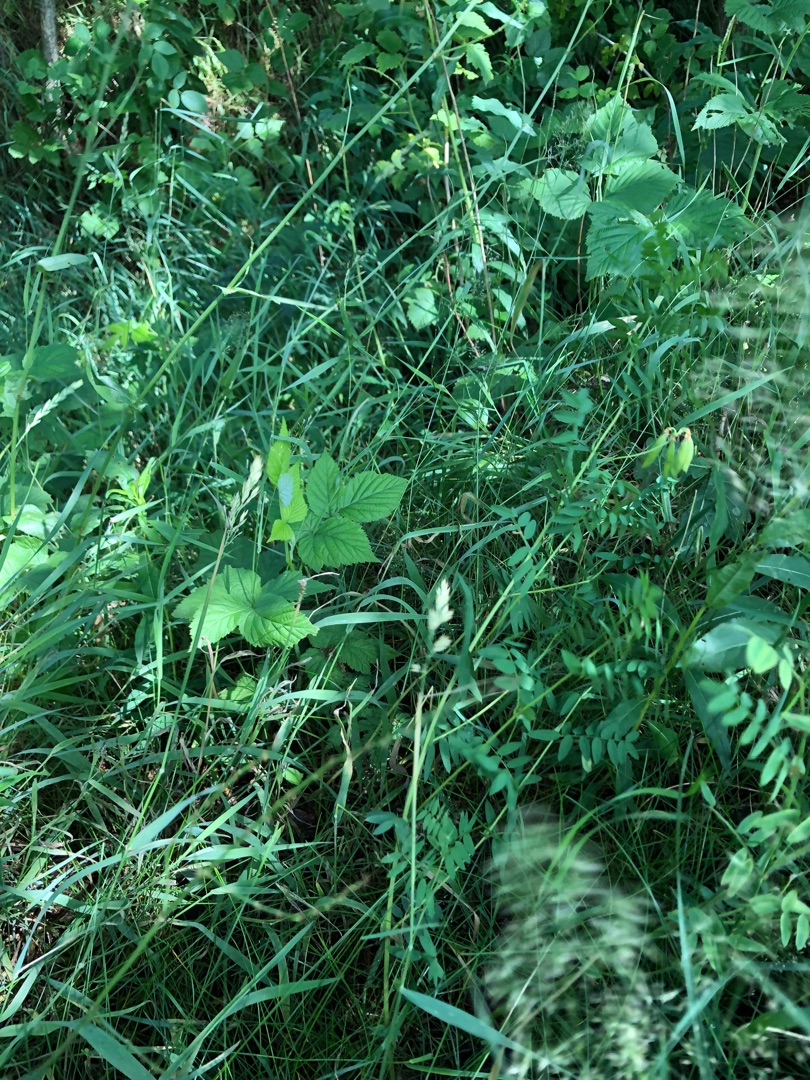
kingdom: Plantae
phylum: Tracheophyta
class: Magnoliopsida
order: Fabales
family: Fabaceae
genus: Vicia
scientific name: Vicia orobus
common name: Lyng-vikke
